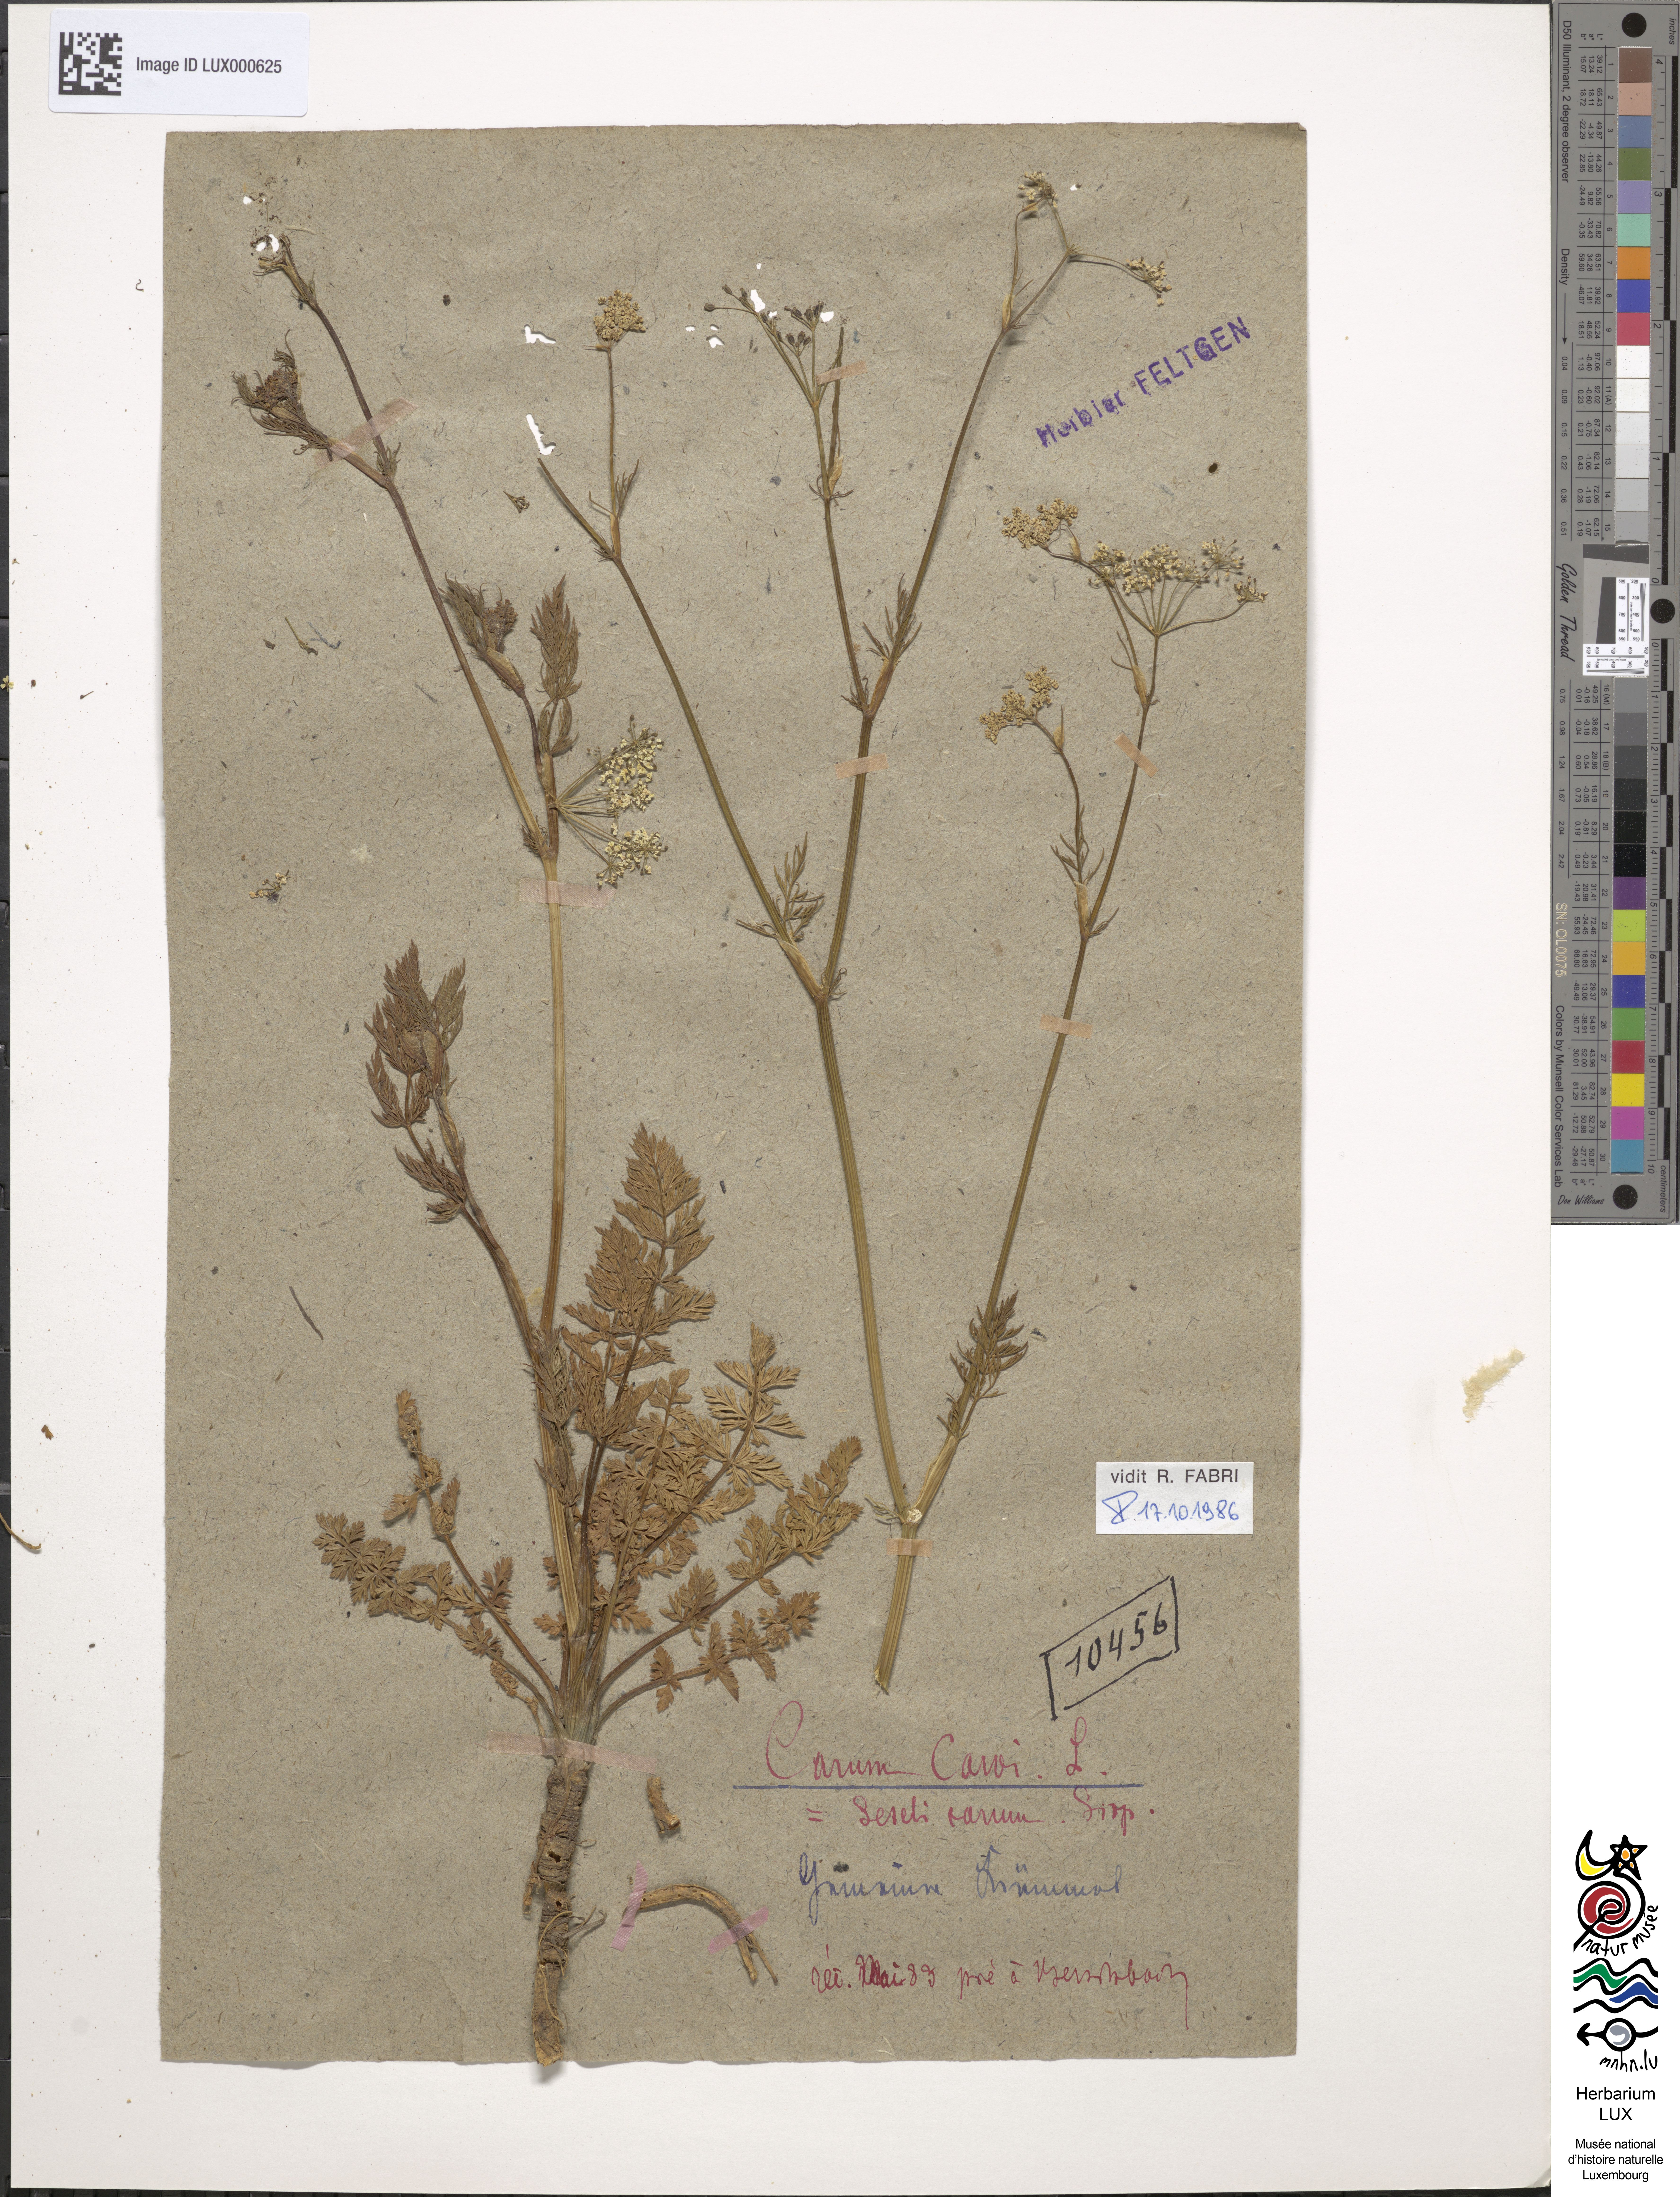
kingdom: Plantae
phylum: Tracheophyta
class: Magnoliopsida
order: Apiales
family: Apiaceae
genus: Carum
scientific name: Carum carvi
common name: Caraway
